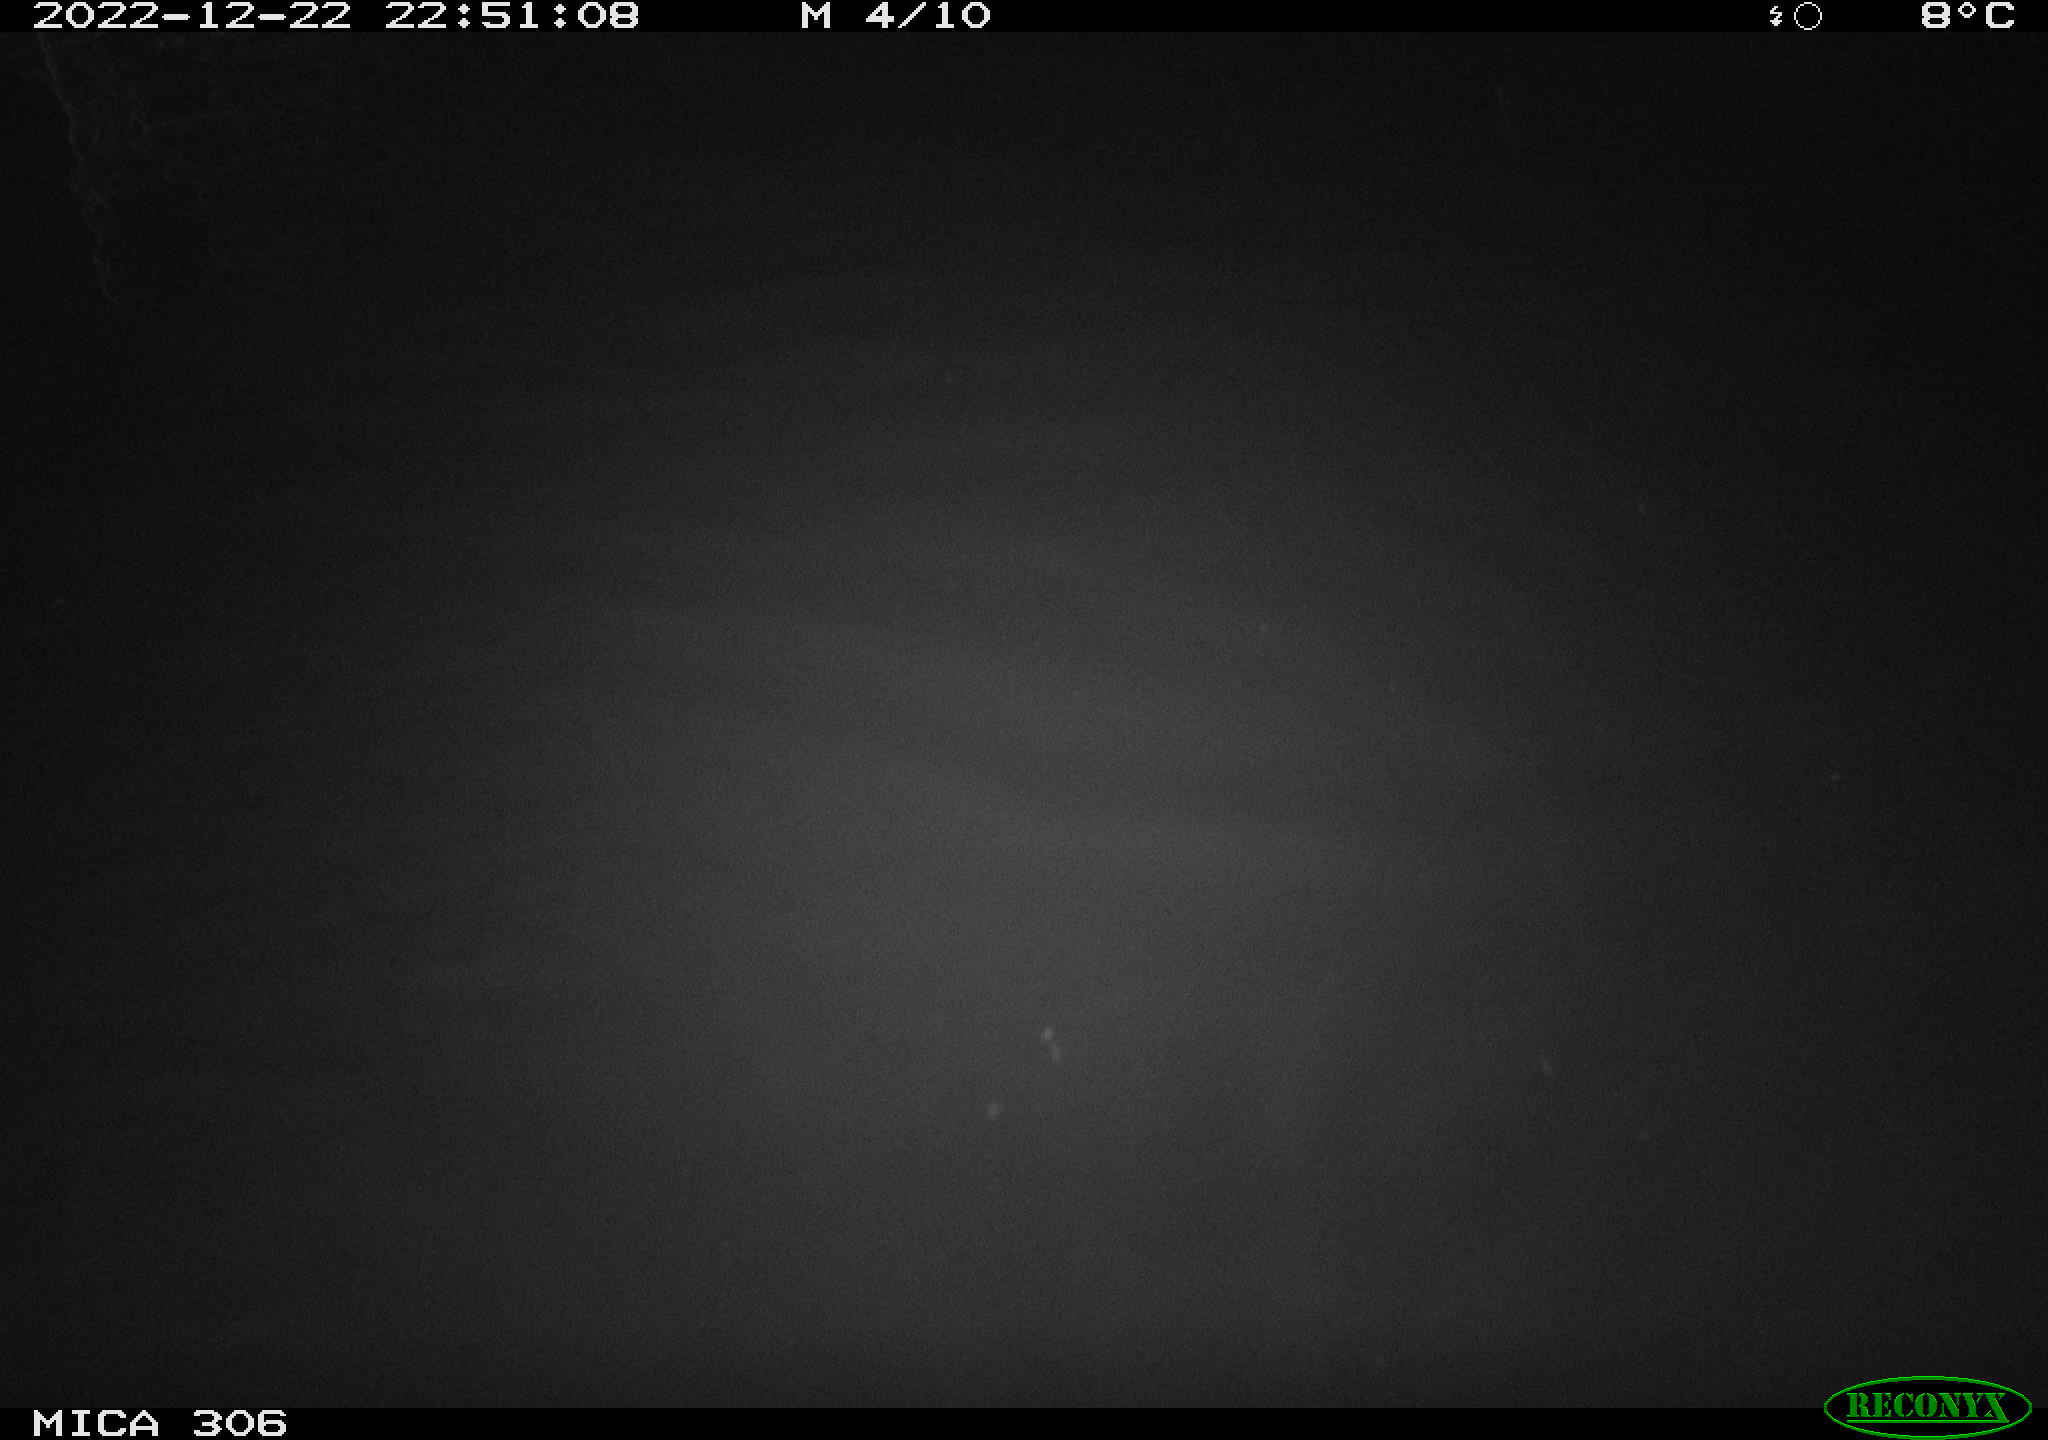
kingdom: Animalia
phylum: Chordata
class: Mammalia
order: Rodentia
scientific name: Rodentia
